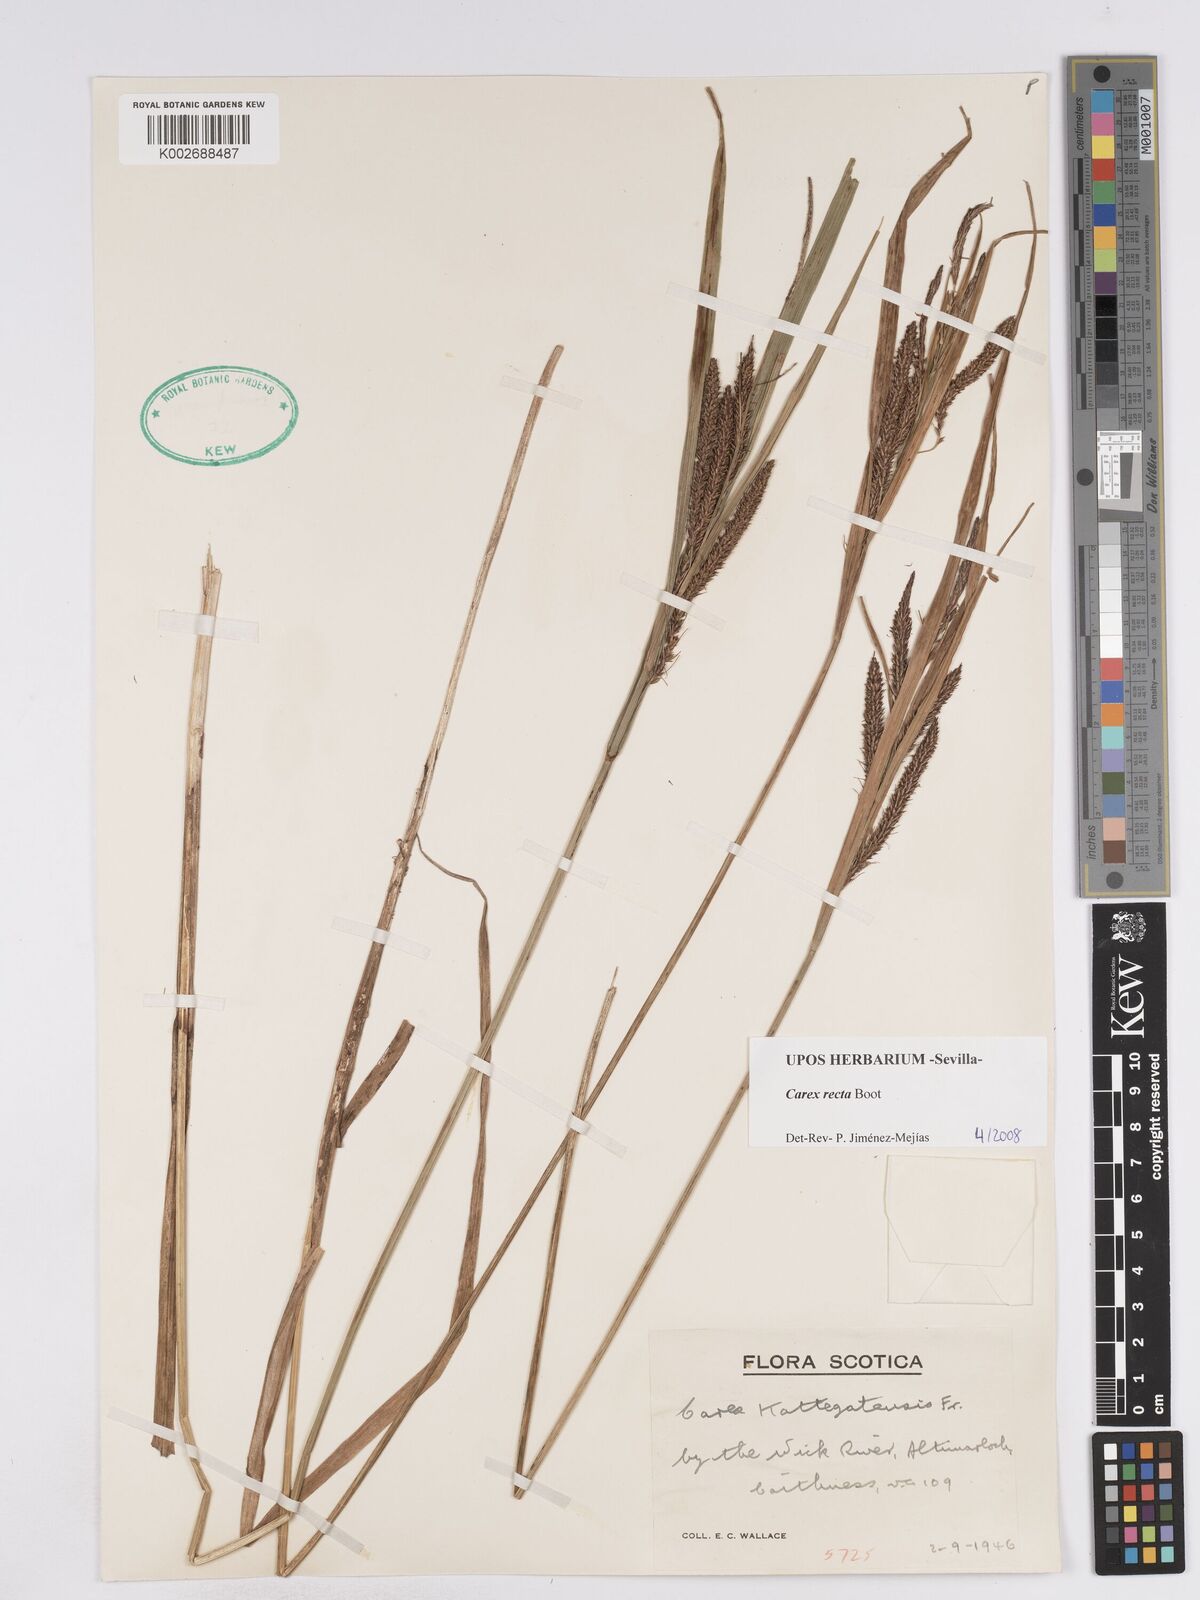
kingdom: Plantae
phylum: Tracheophyta
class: Liliopsida
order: Poales
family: Cyperaceae
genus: Carex
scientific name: Carex recta
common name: Estuarine sedge
